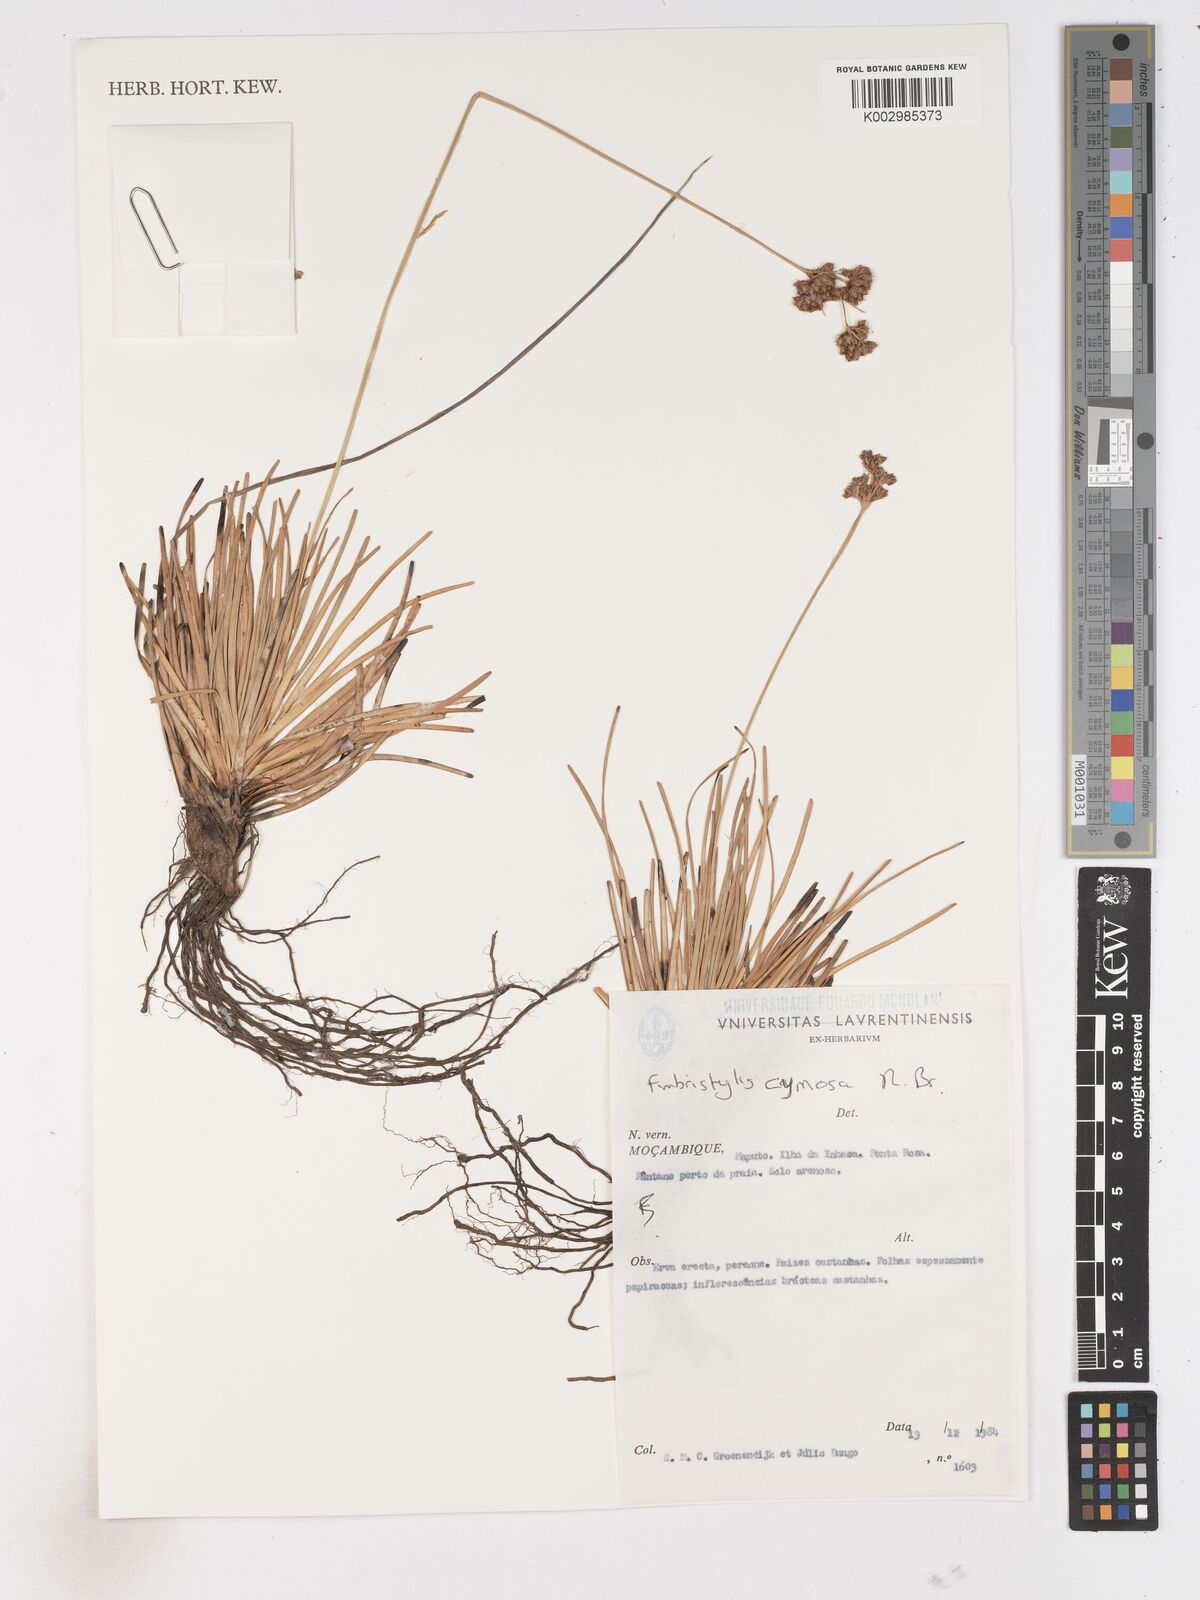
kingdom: Plantae
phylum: Tracheophyta
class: Liliopsida
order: Poales
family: Cyperaceae
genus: Fimbristylis
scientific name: Fimbristylis cymosa
